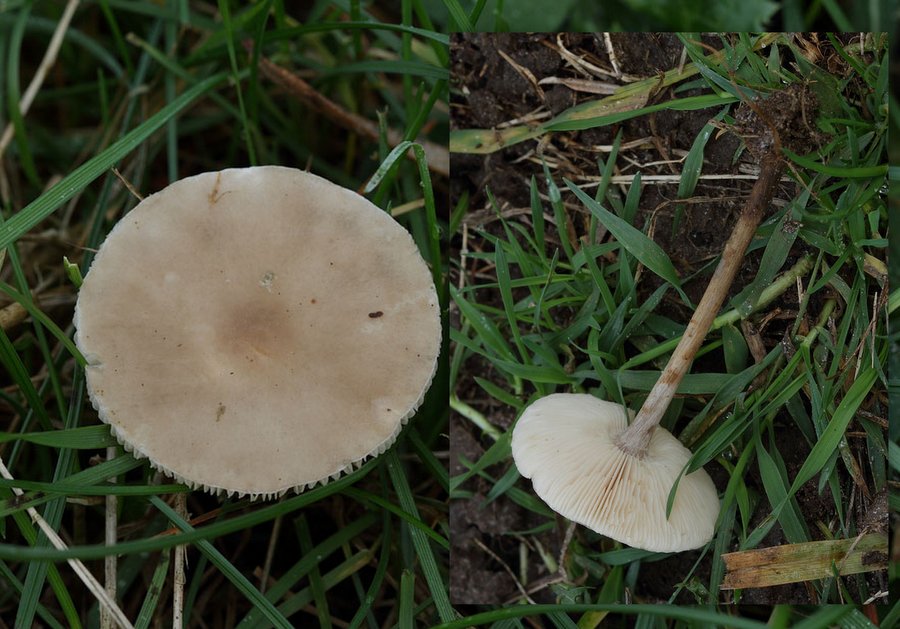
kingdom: Fungi
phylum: Basidiomycota
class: Agaricomycetes
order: Agaricales
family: Tricholomataceae
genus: Melanoleuca
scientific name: Melanoleuca
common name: munkehat
